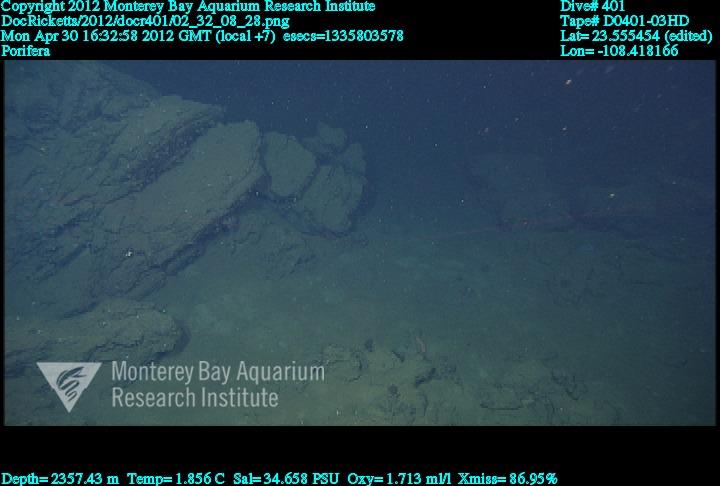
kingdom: Animalia
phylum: Porifera
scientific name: Porifera
